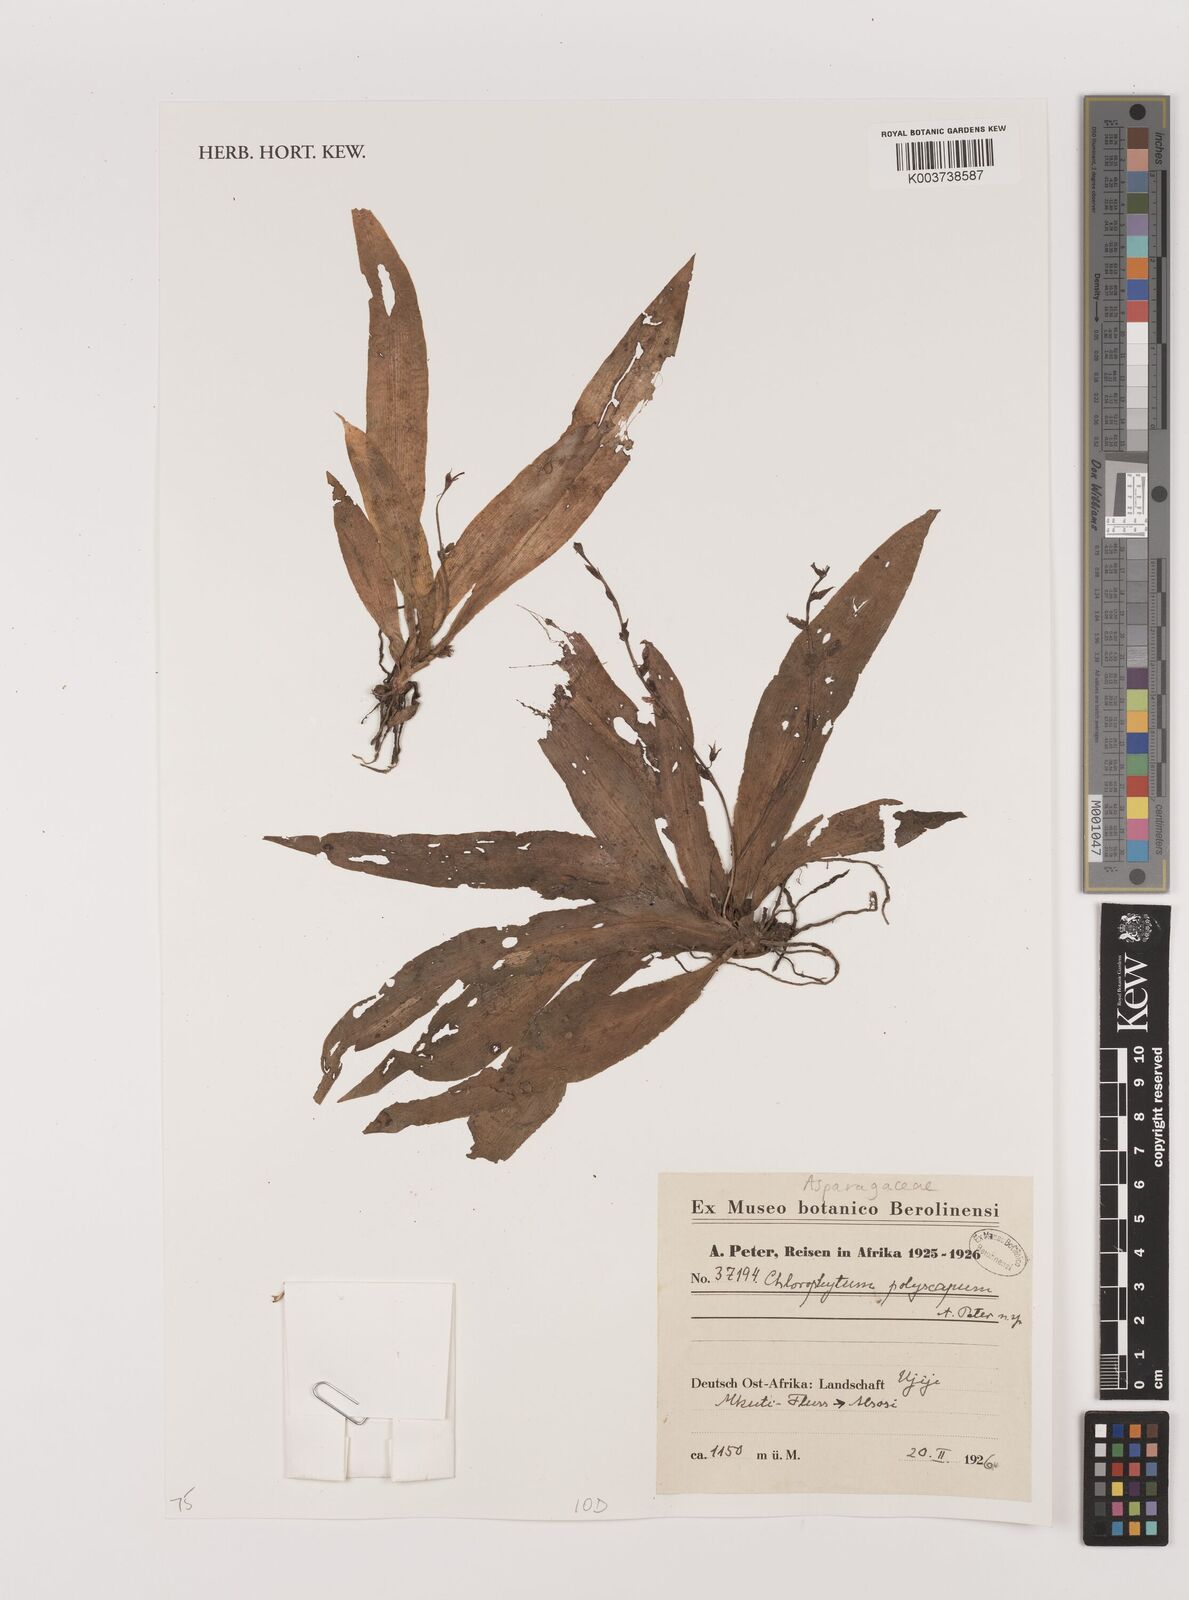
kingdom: Plantae
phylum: Tracheophyta
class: Liliopsida
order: Asparagales
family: Asparagaceae
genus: Chlorophytum
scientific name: Chlorophytum gallabatense
